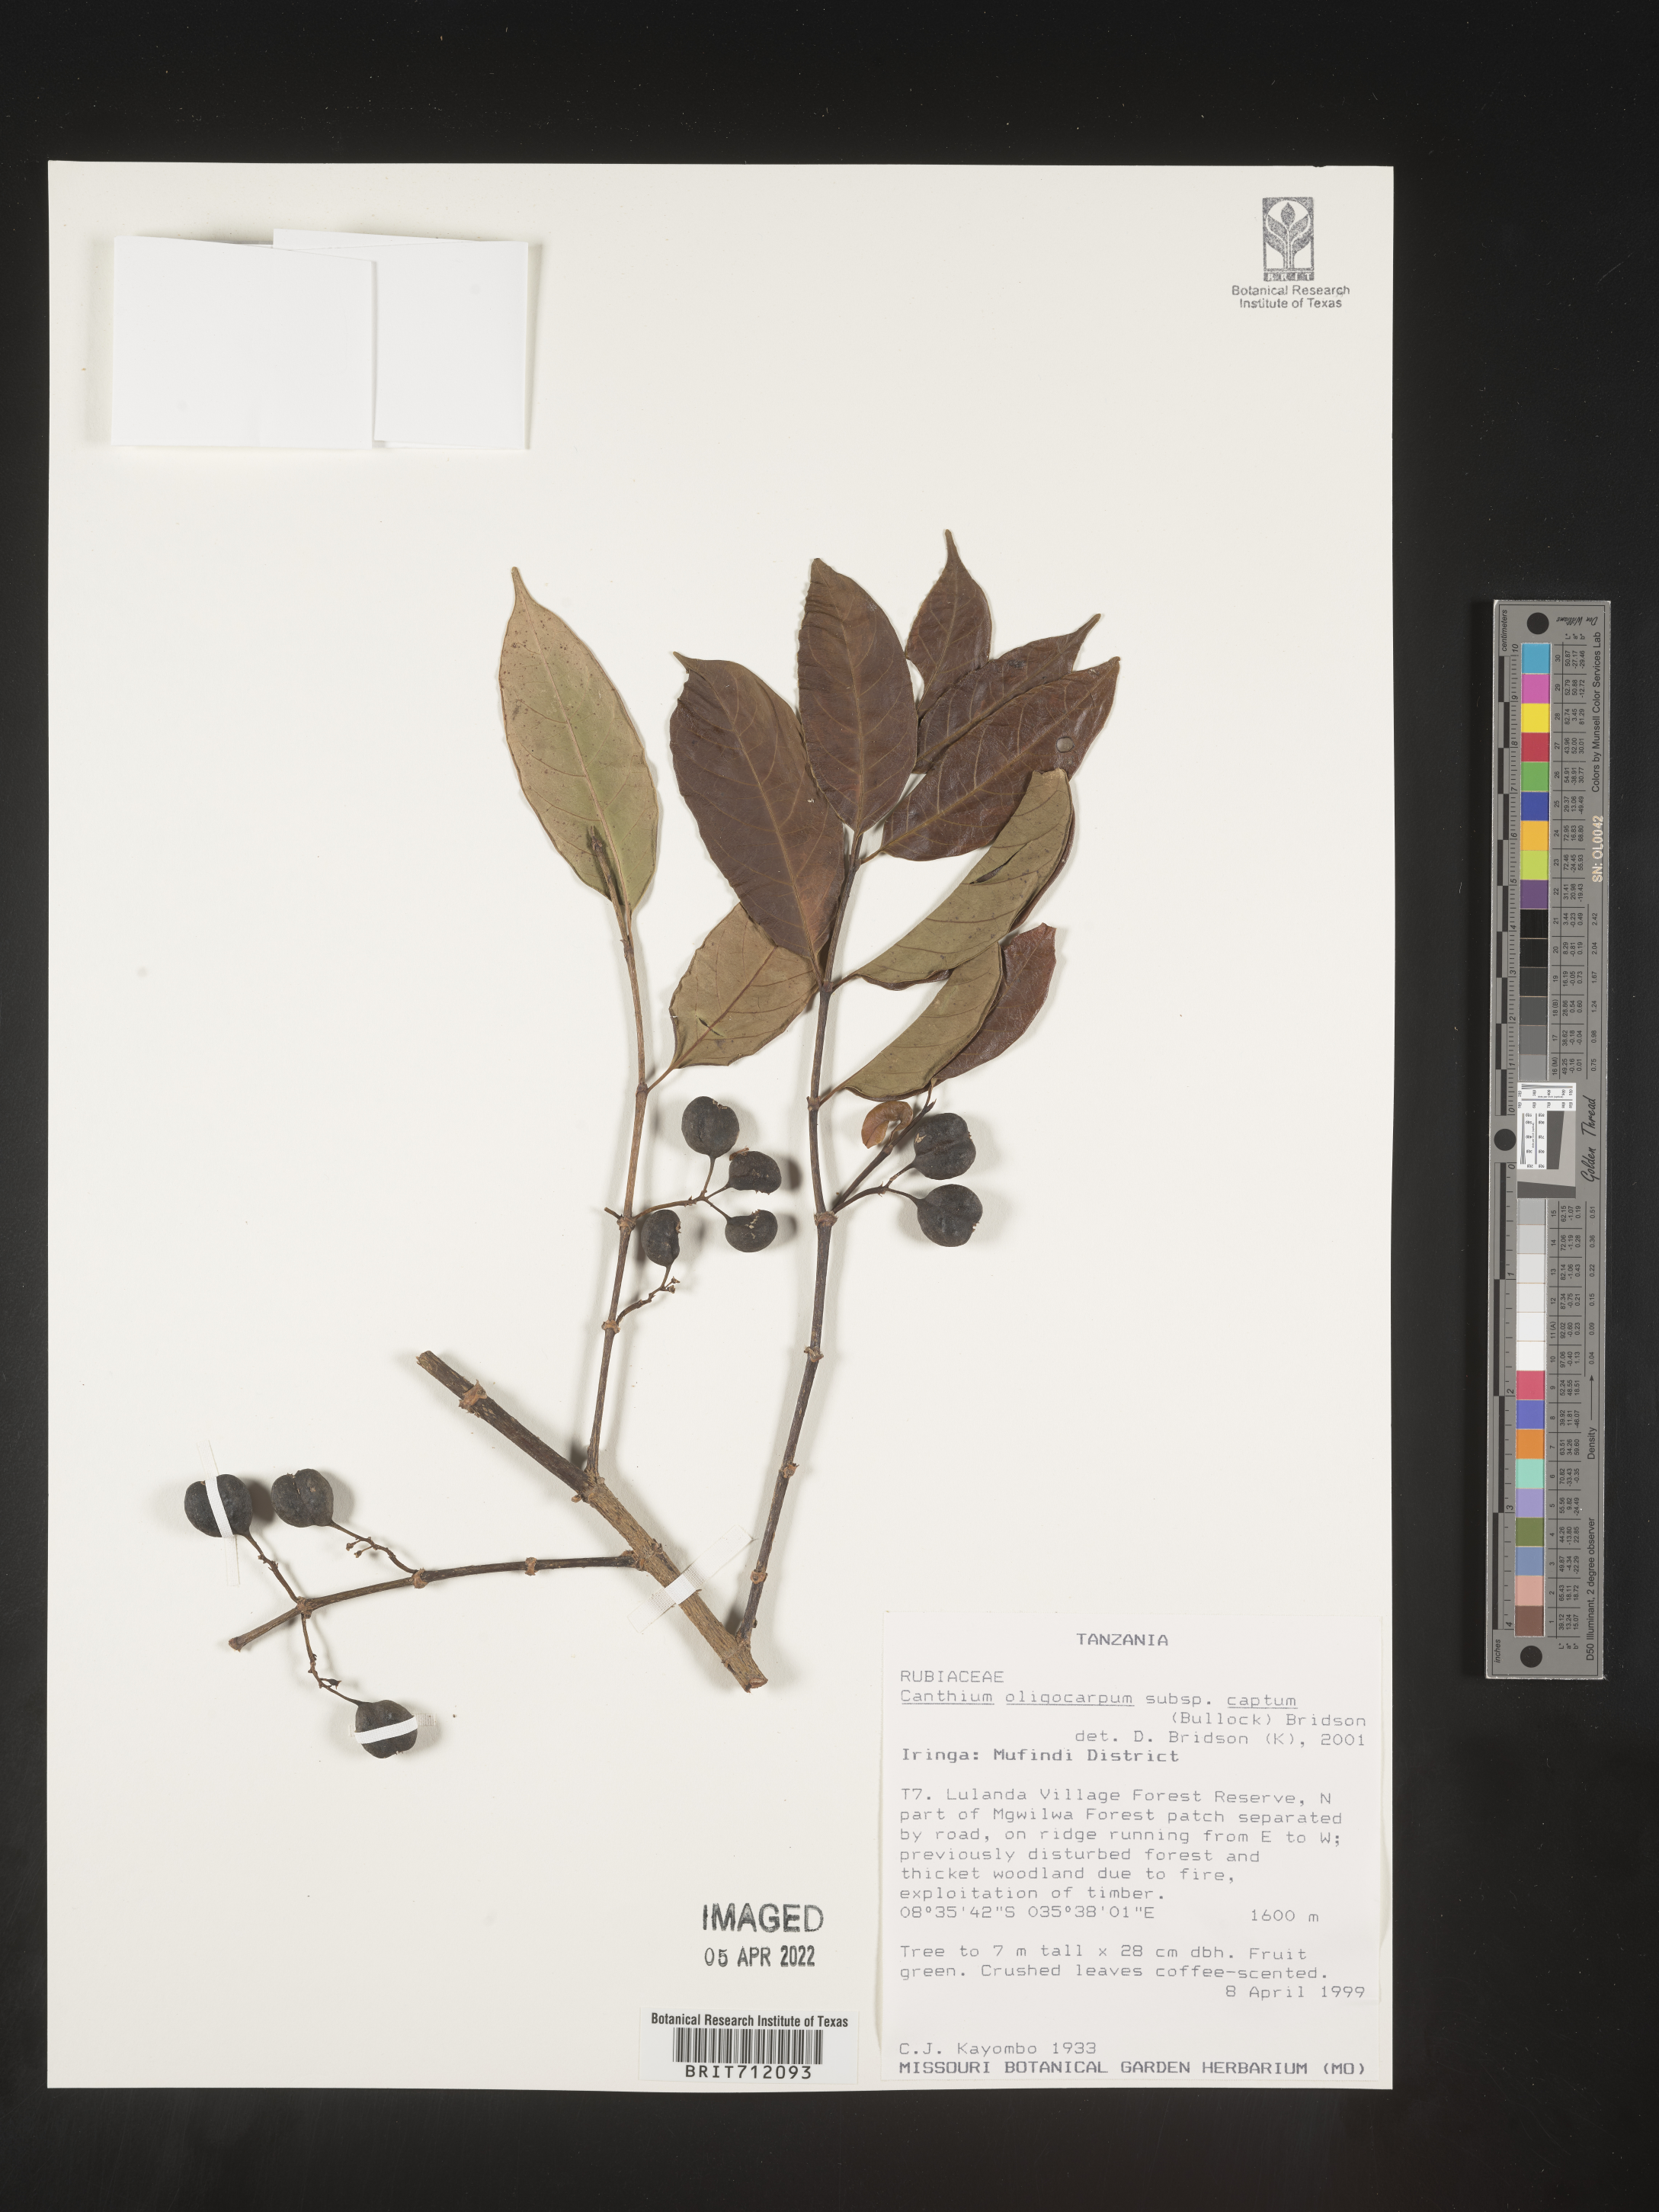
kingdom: Plantae
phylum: Tracheophyta
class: Magnoliopsida
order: Gentianales
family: Rubiaceae
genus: Canthium
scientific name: Canthium
